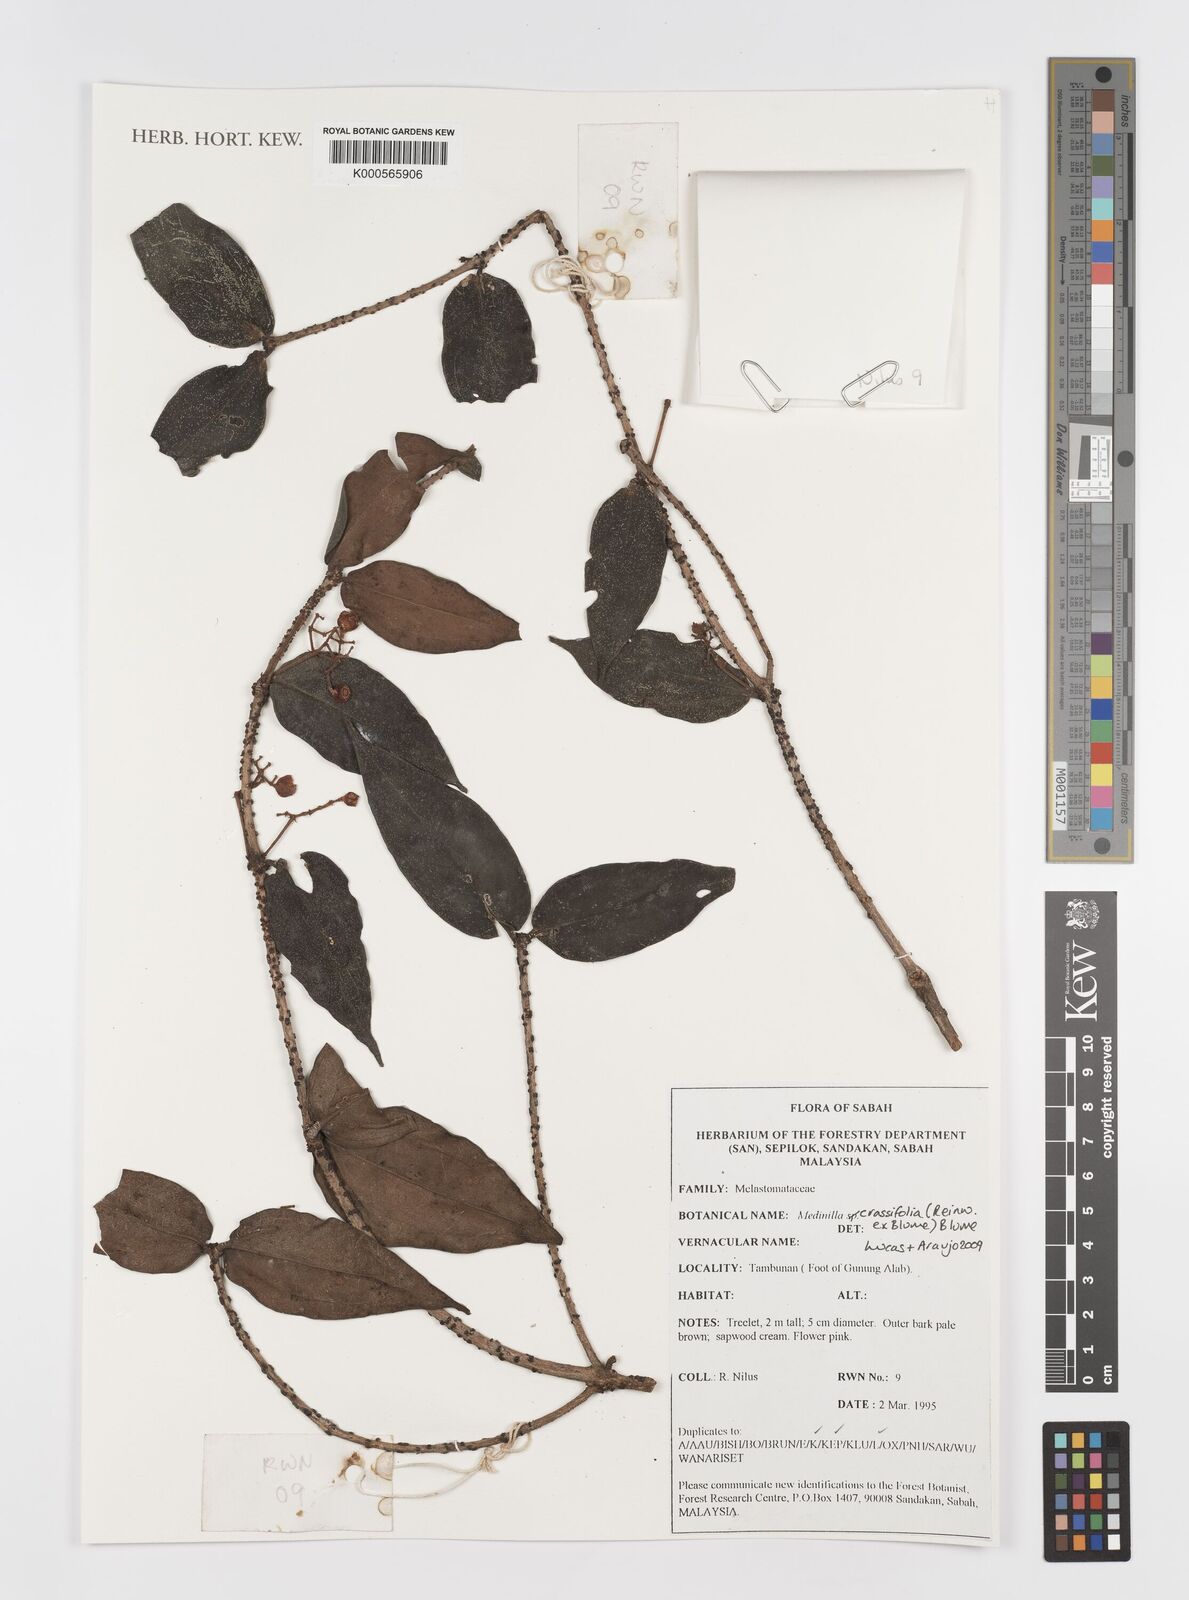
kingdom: Plantae
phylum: Tracheophyta
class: Magnoliopsida
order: Myrtales
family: Melastomataceae
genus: Medinilla
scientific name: Medinilla crassifolia
